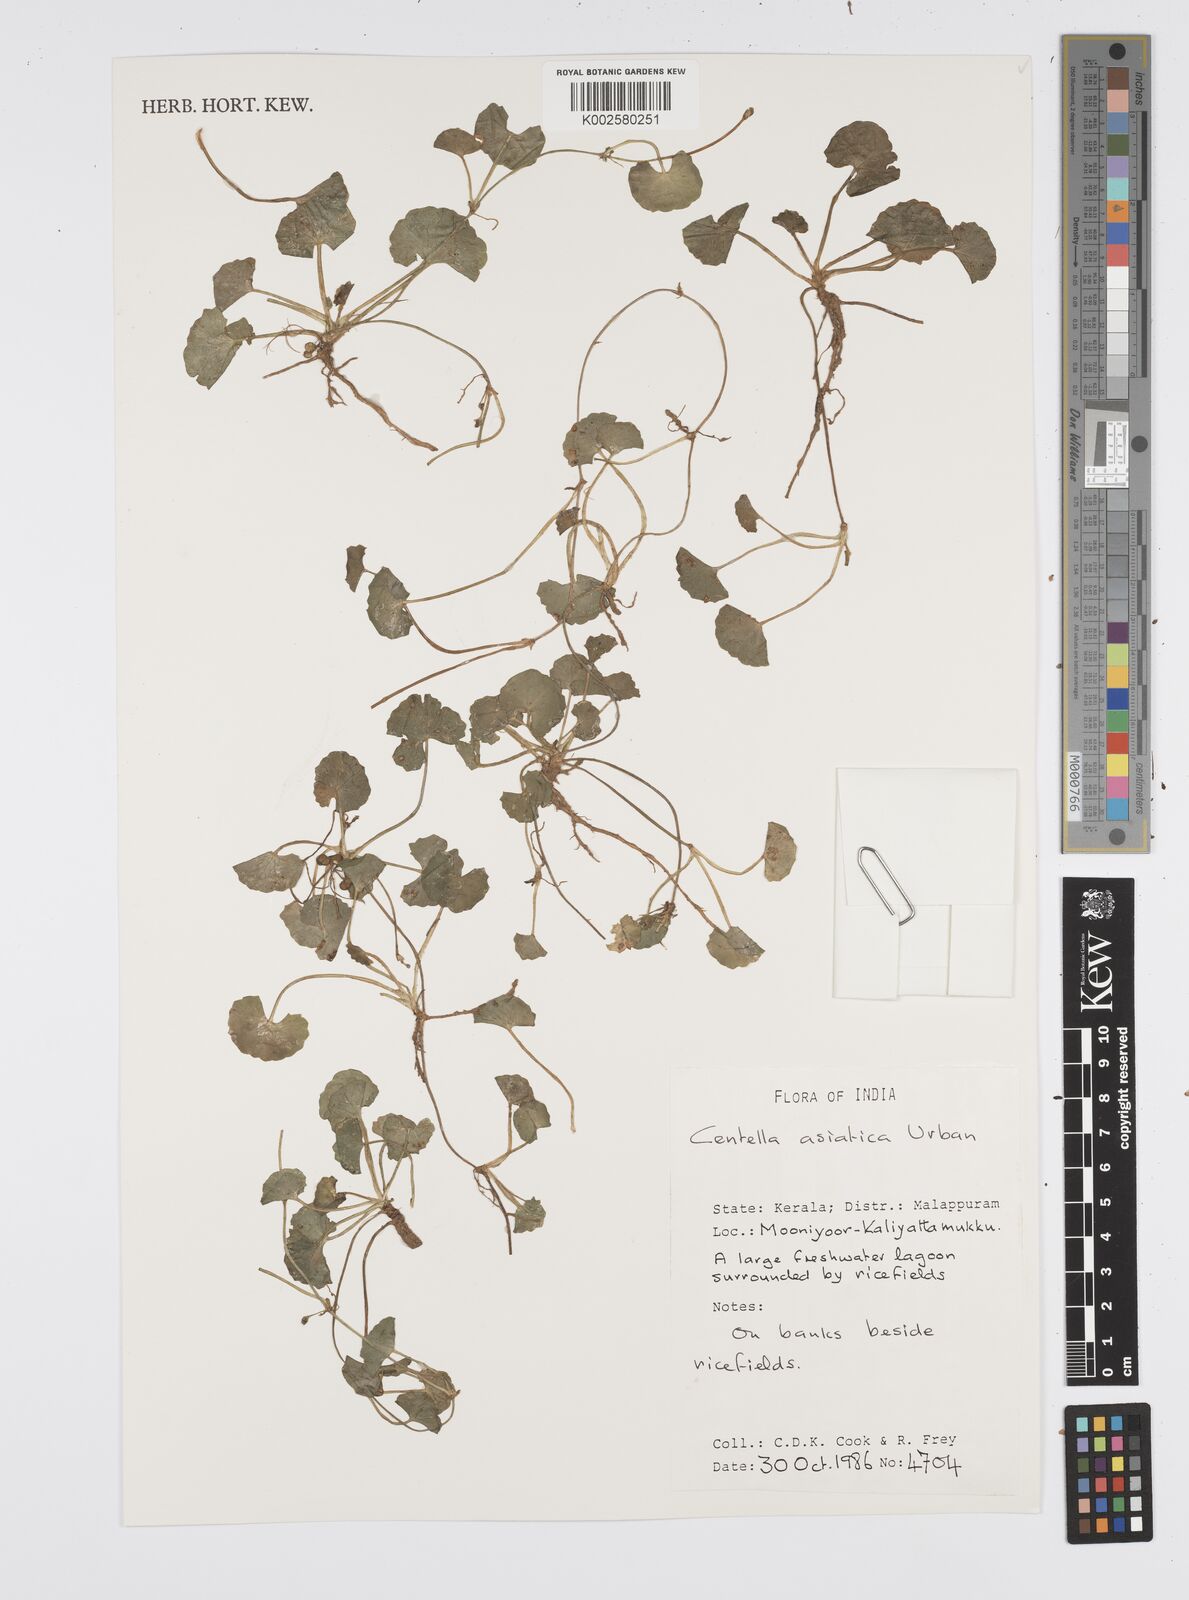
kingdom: Plantae
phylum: Tracheophyta
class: Magnoliopsida
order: Apiales
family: Apiaceae
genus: Centella
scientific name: Centella asiatica
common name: Spadeleaf
